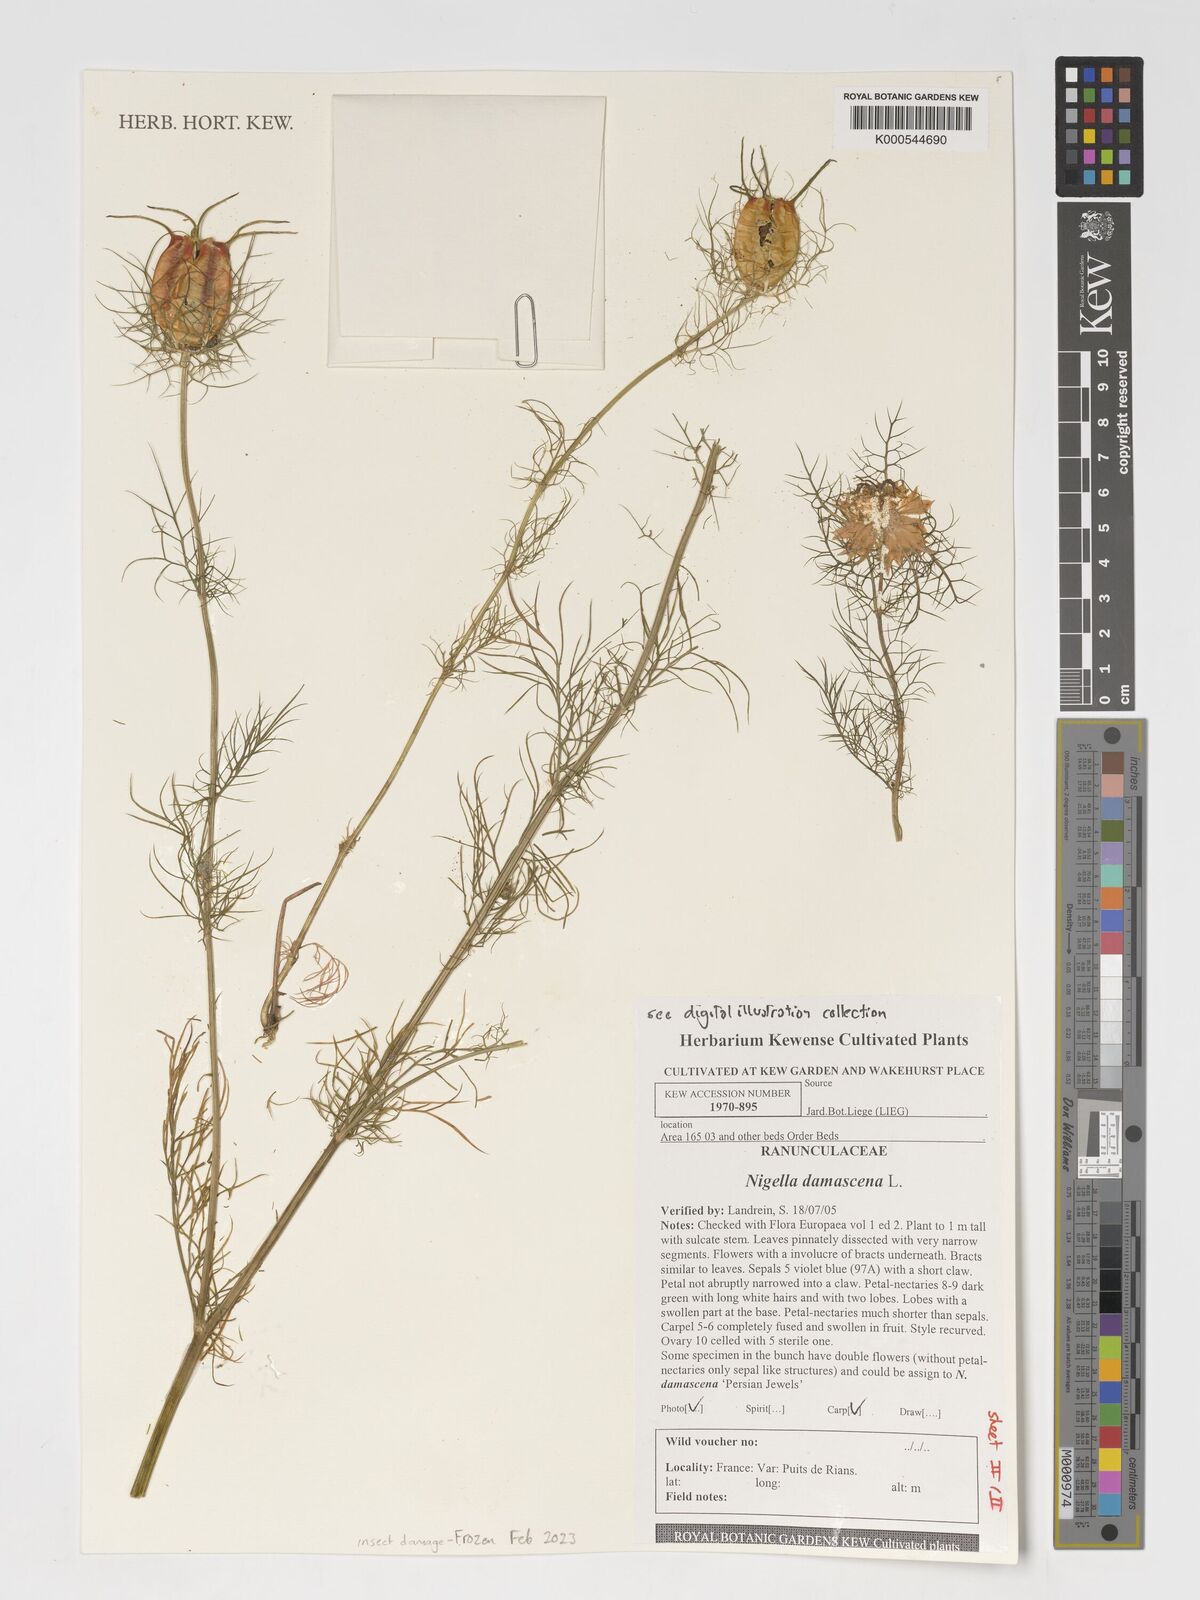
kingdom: Plantae
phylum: Tracheophyta
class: Magnoliopsida
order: Ranunculales
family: Ranunculaceae
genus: Nigella
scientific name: Nigella damascena
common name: Love-in-a-mist
